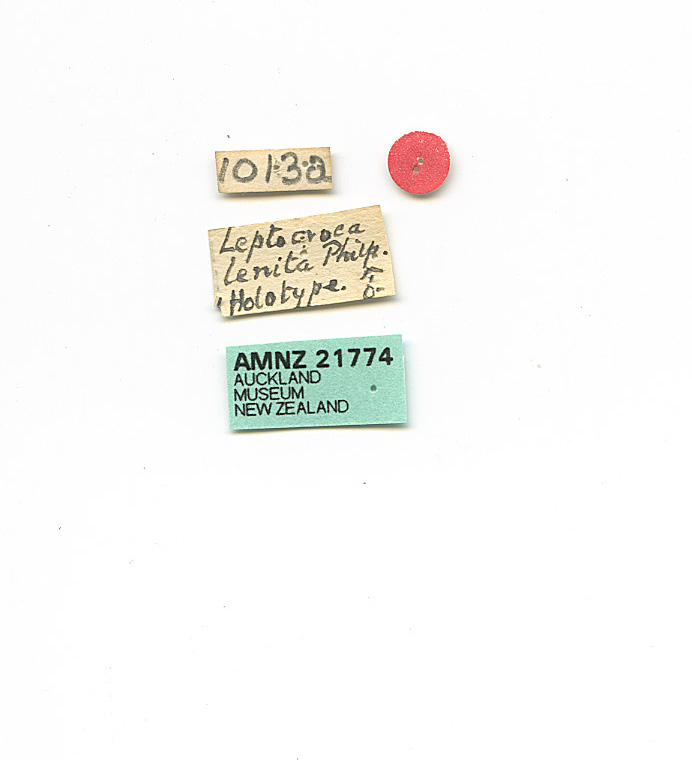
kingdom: Animalia
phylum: Arthropoda
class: Insecta
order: Lepidoptera
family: Oecophoridae
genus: Leptocroca
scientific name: Leptocroca lenita
